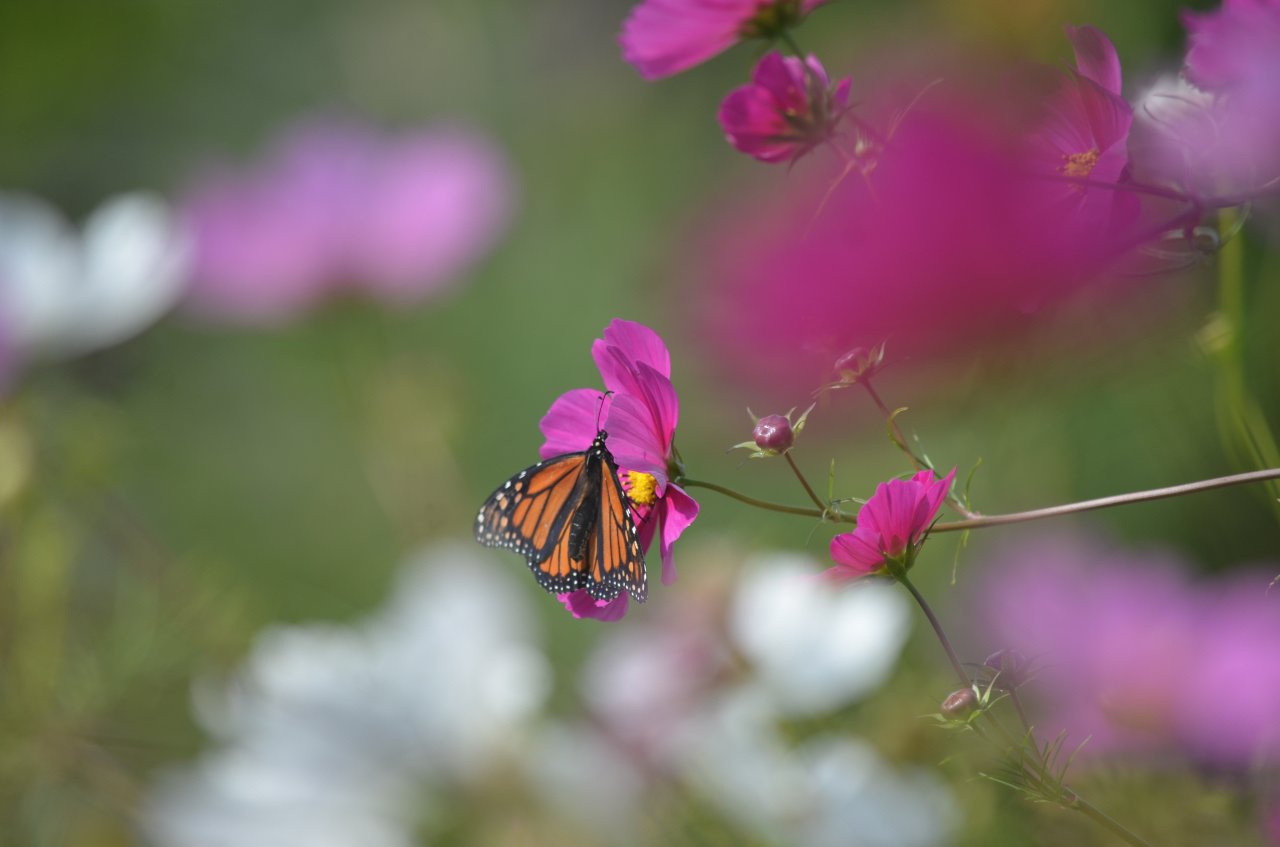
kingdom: Animalia
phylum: Arthropoda
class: Insecta
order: Lepidoptera
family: Nymphalidae
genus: Danaus
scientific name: Danaus plexippus
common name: Monarch
